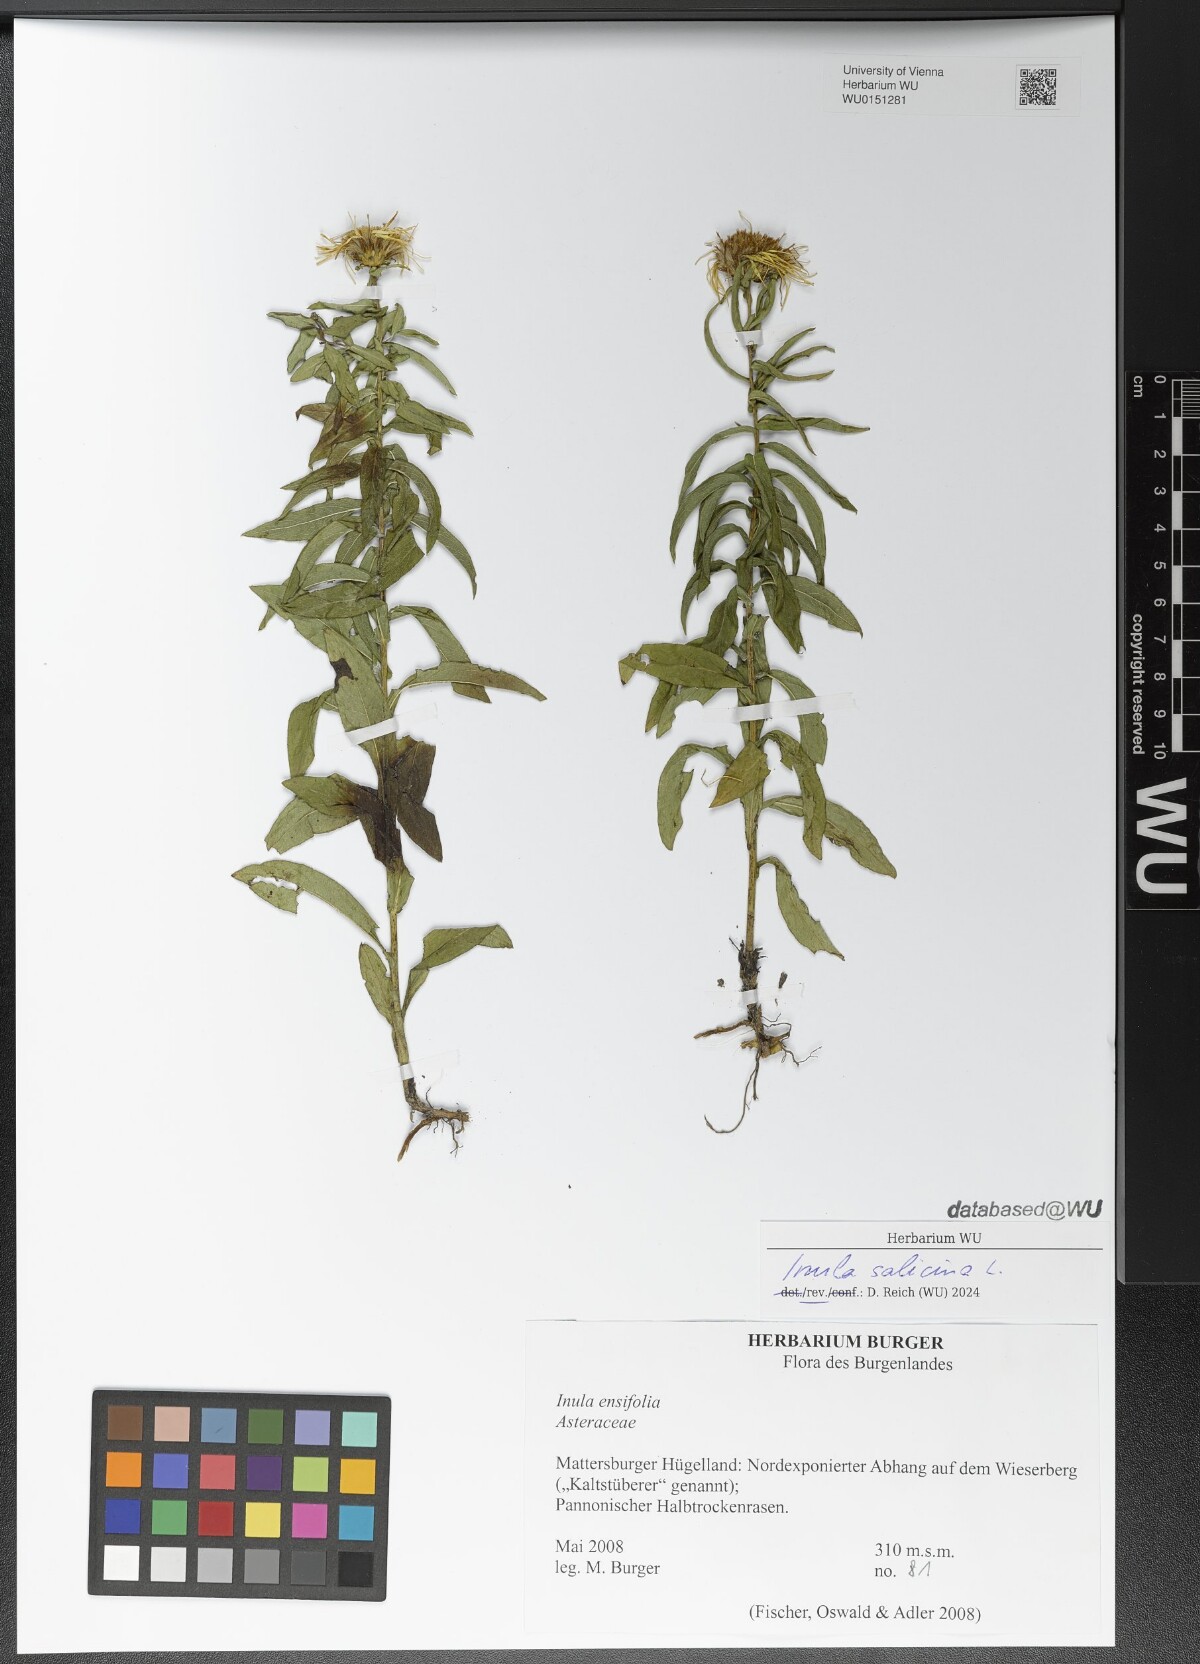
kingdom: Plantae
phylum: Tracheophyta
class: Magnoliopsida
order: Asterales
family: Asteraceae
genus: Pentanema
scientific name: Pentanema salicinum
